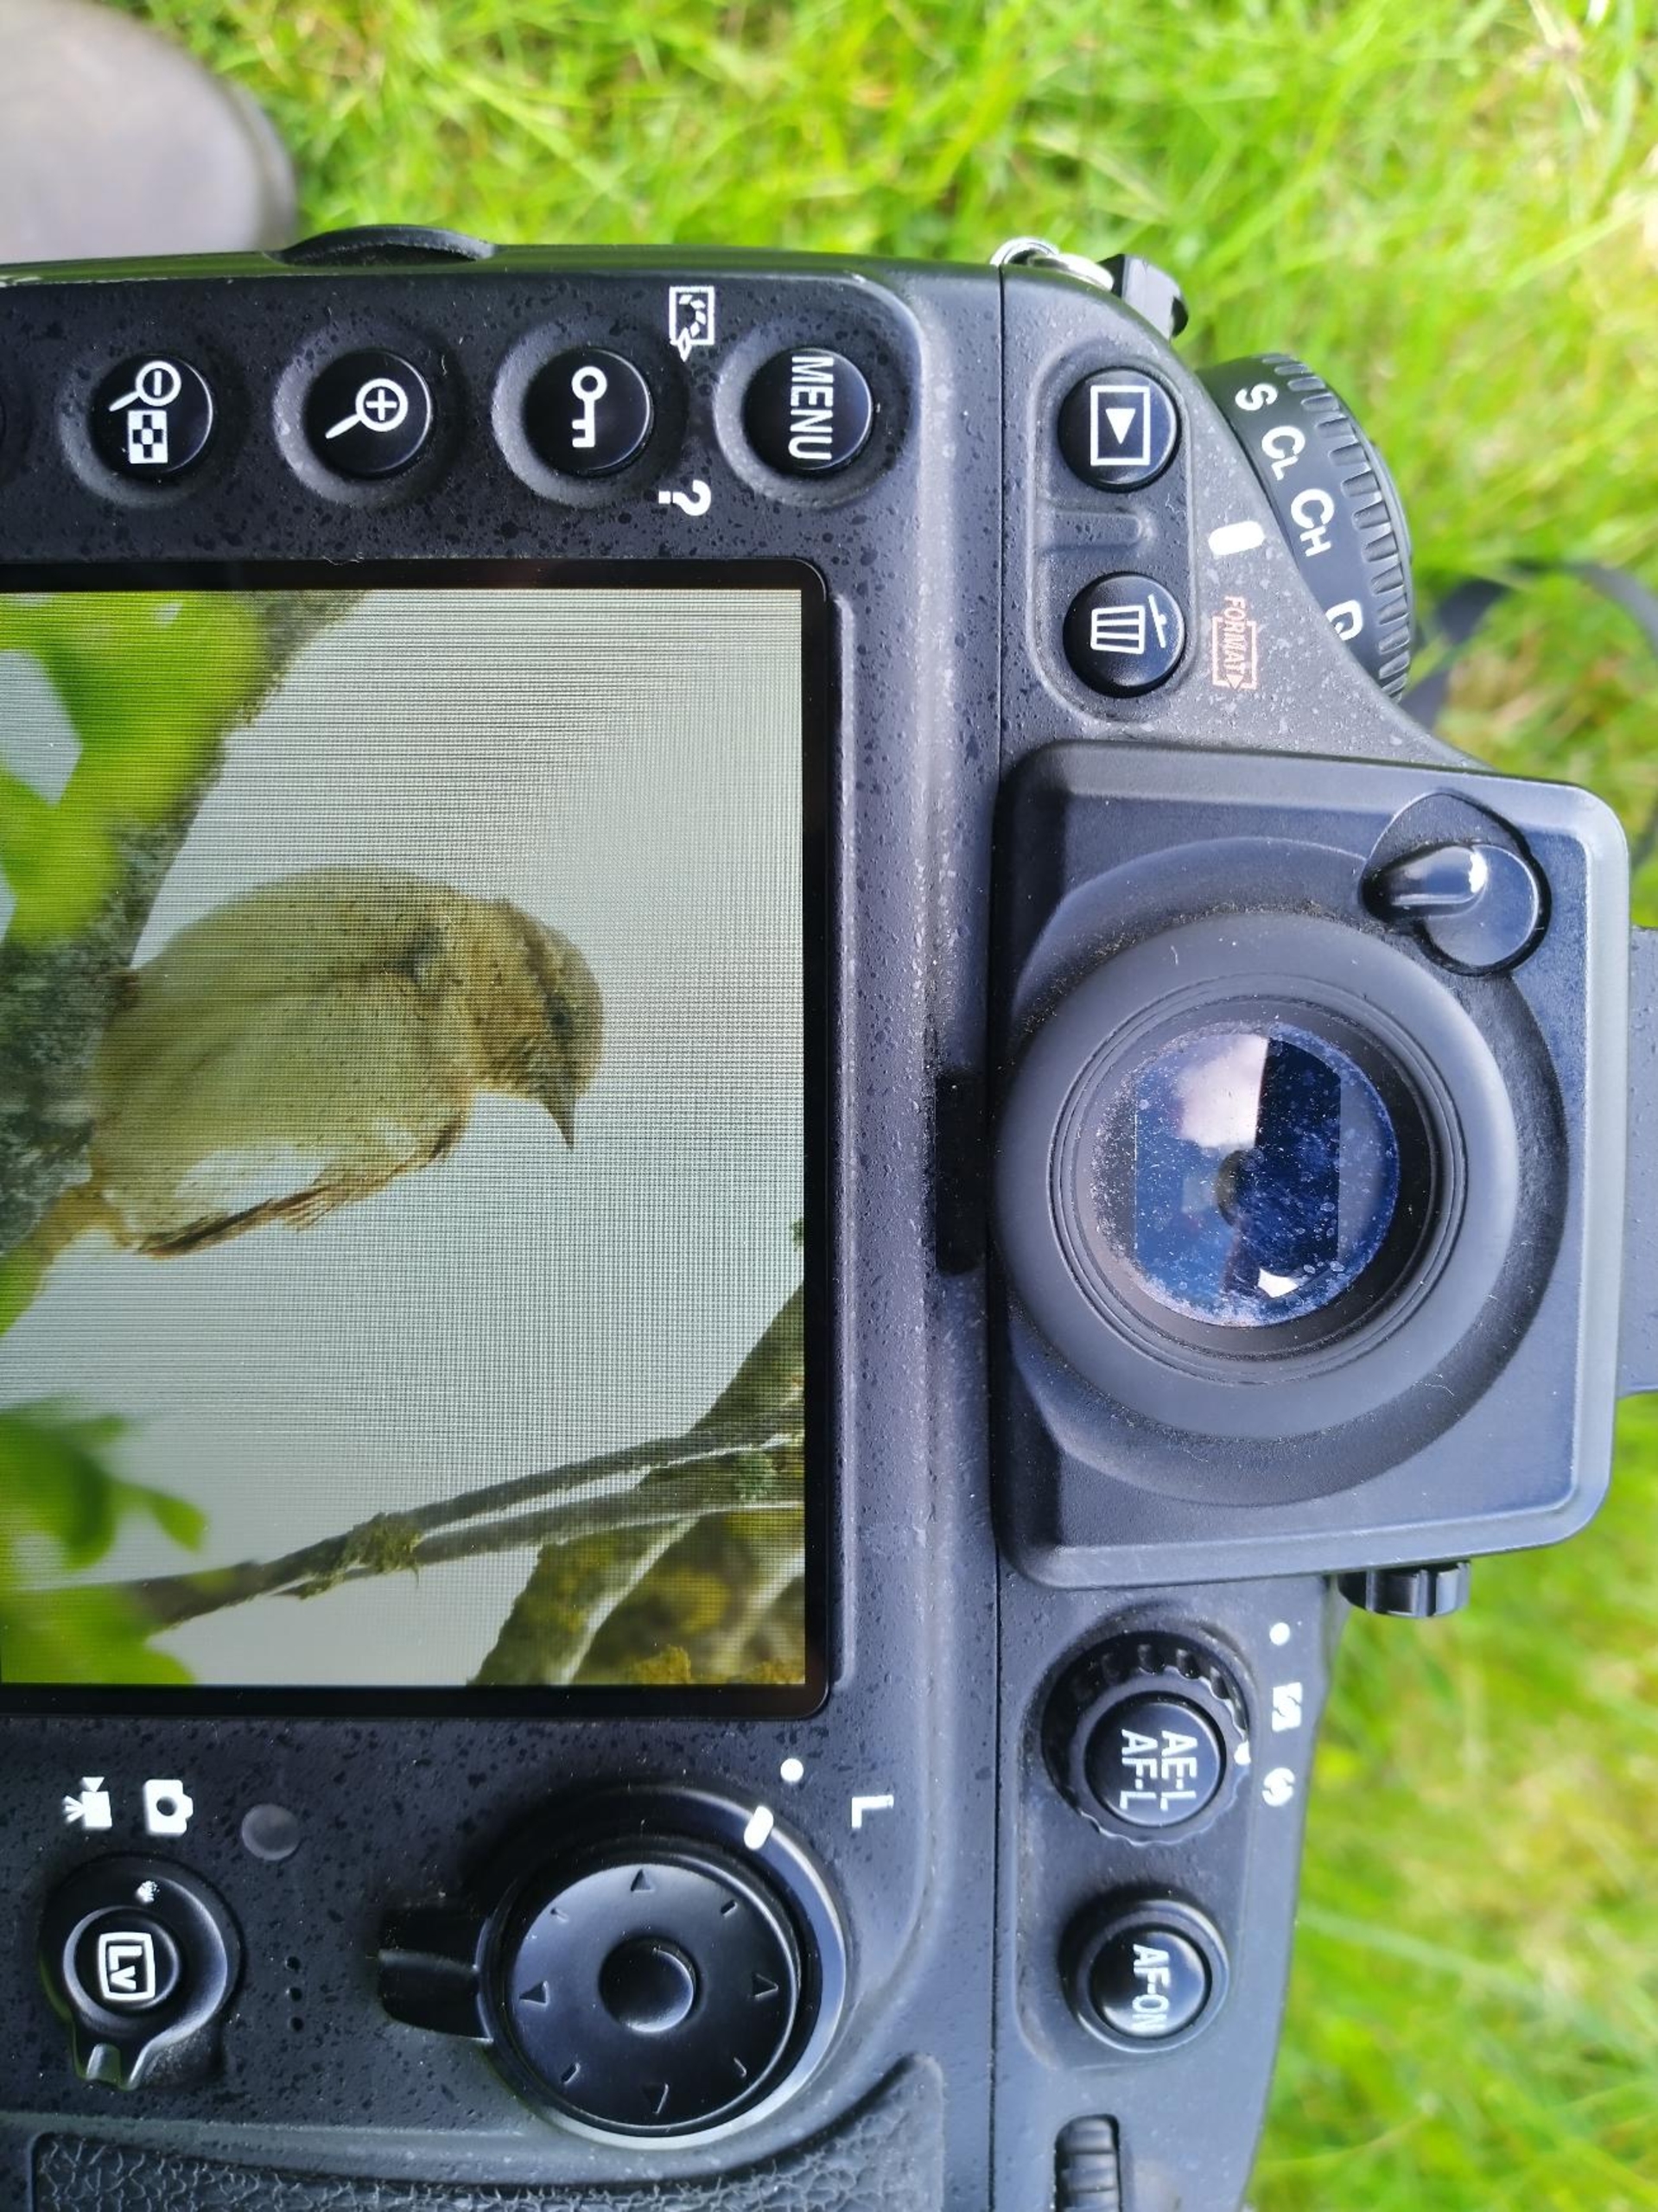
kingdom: Animalia
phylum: Chordata
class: Aves
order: Piciformes
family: Picidae
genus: Jynx
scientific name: Jynx torquilla
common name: Vendehals
